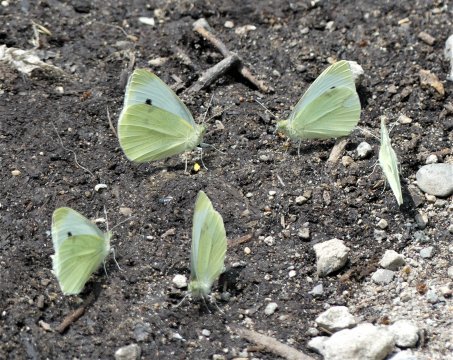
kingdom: Animalia
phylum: Arthropoda
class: Insecta
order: Lepidoptera
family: Pieridae
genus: Pieris
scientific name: Pieris rapae
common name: Cabbage White
